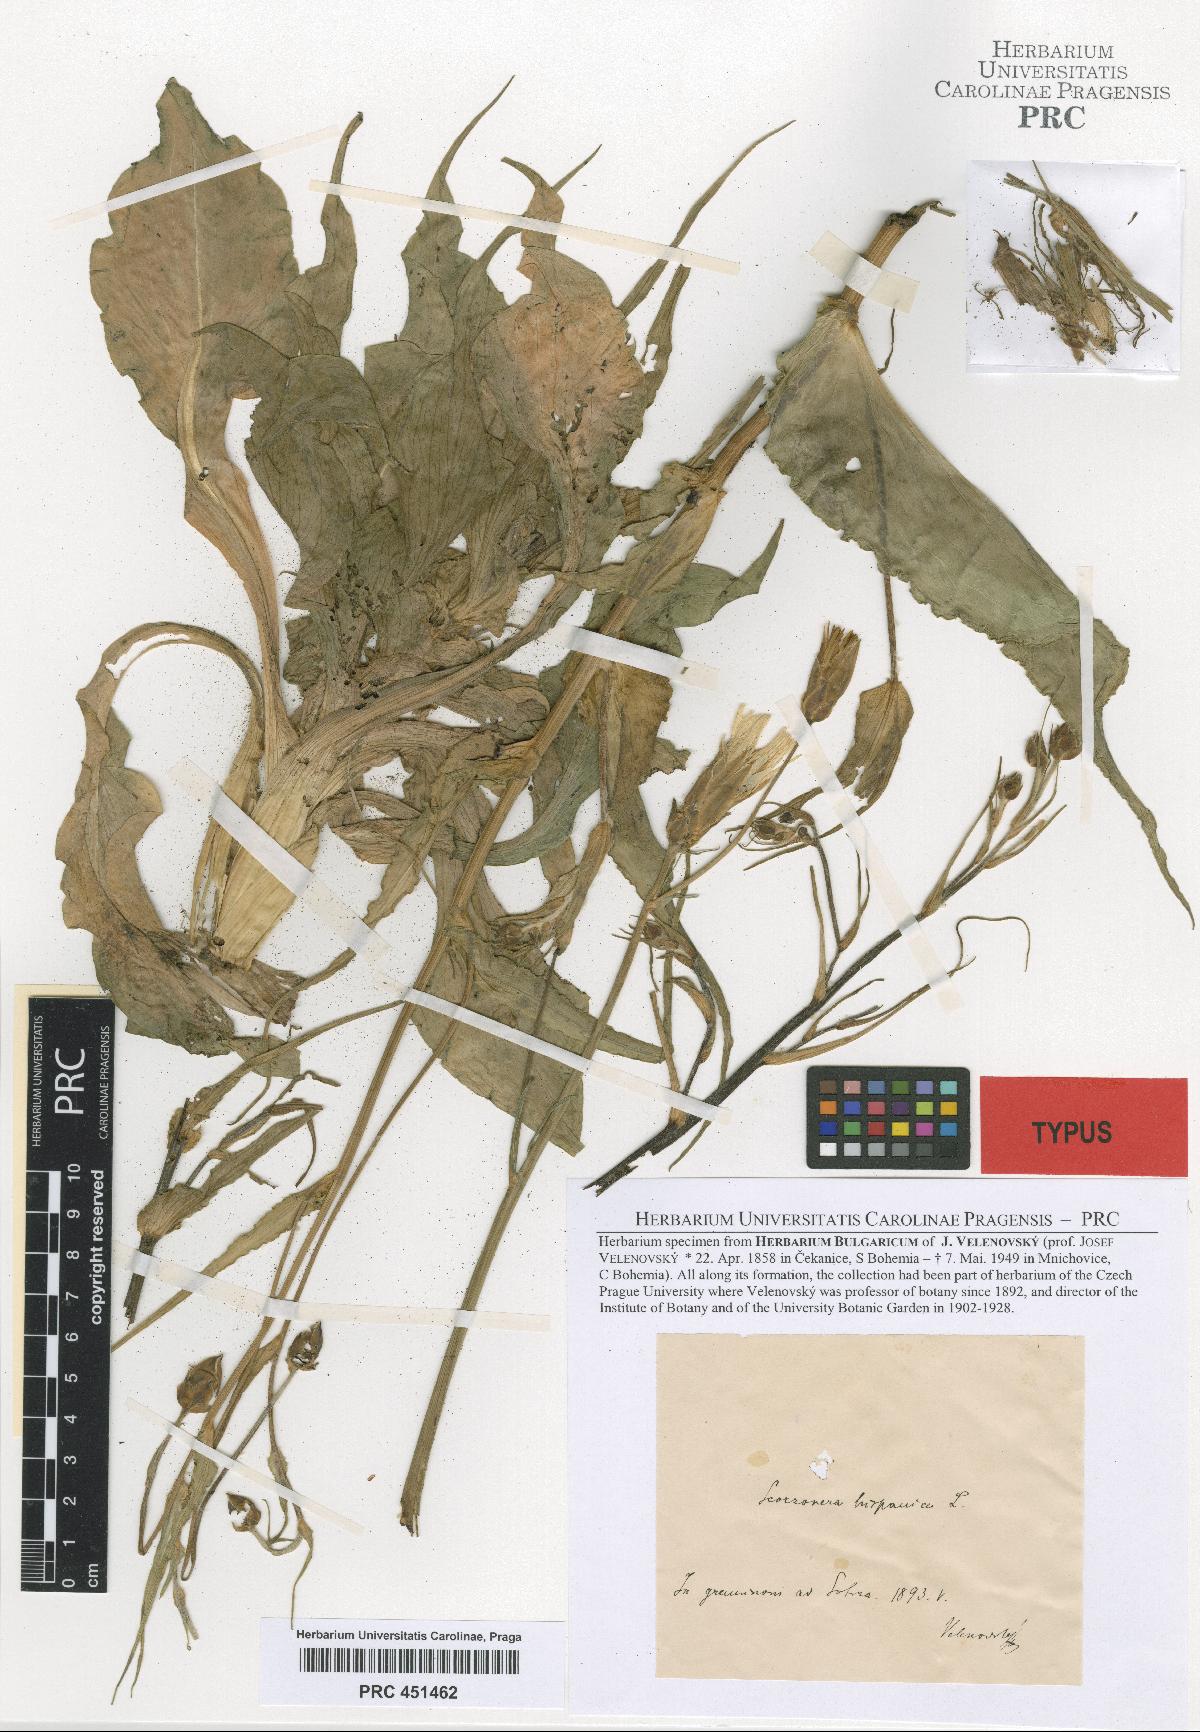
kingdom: Plantae
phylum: Tracheophyta
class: Magnoliopsida
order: Asterales
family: Asteraceae
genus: Pseudopodospermum
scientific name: Pseudopodospermum hispanicum
